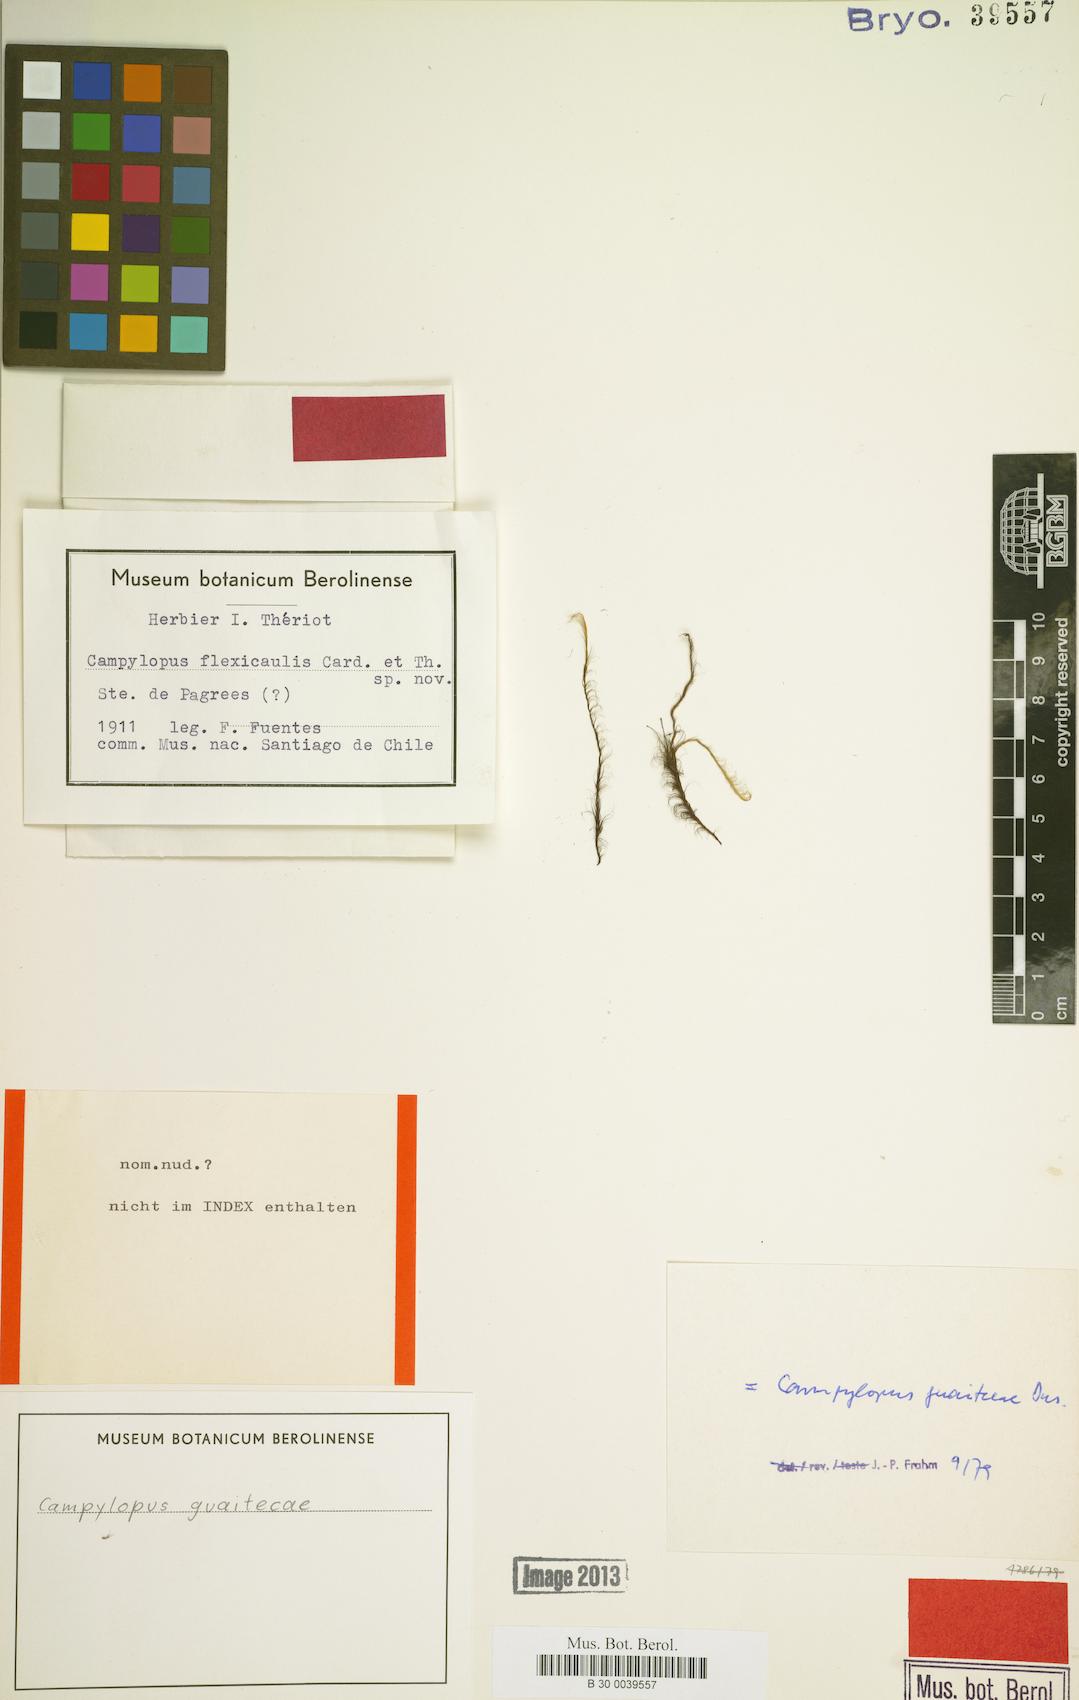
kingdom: Plantae
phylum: Bryophyta
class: Bryopsida
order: Dicranales
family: Leucobryaceae
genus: Campylopus
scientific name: Campylopus vesticaulis
